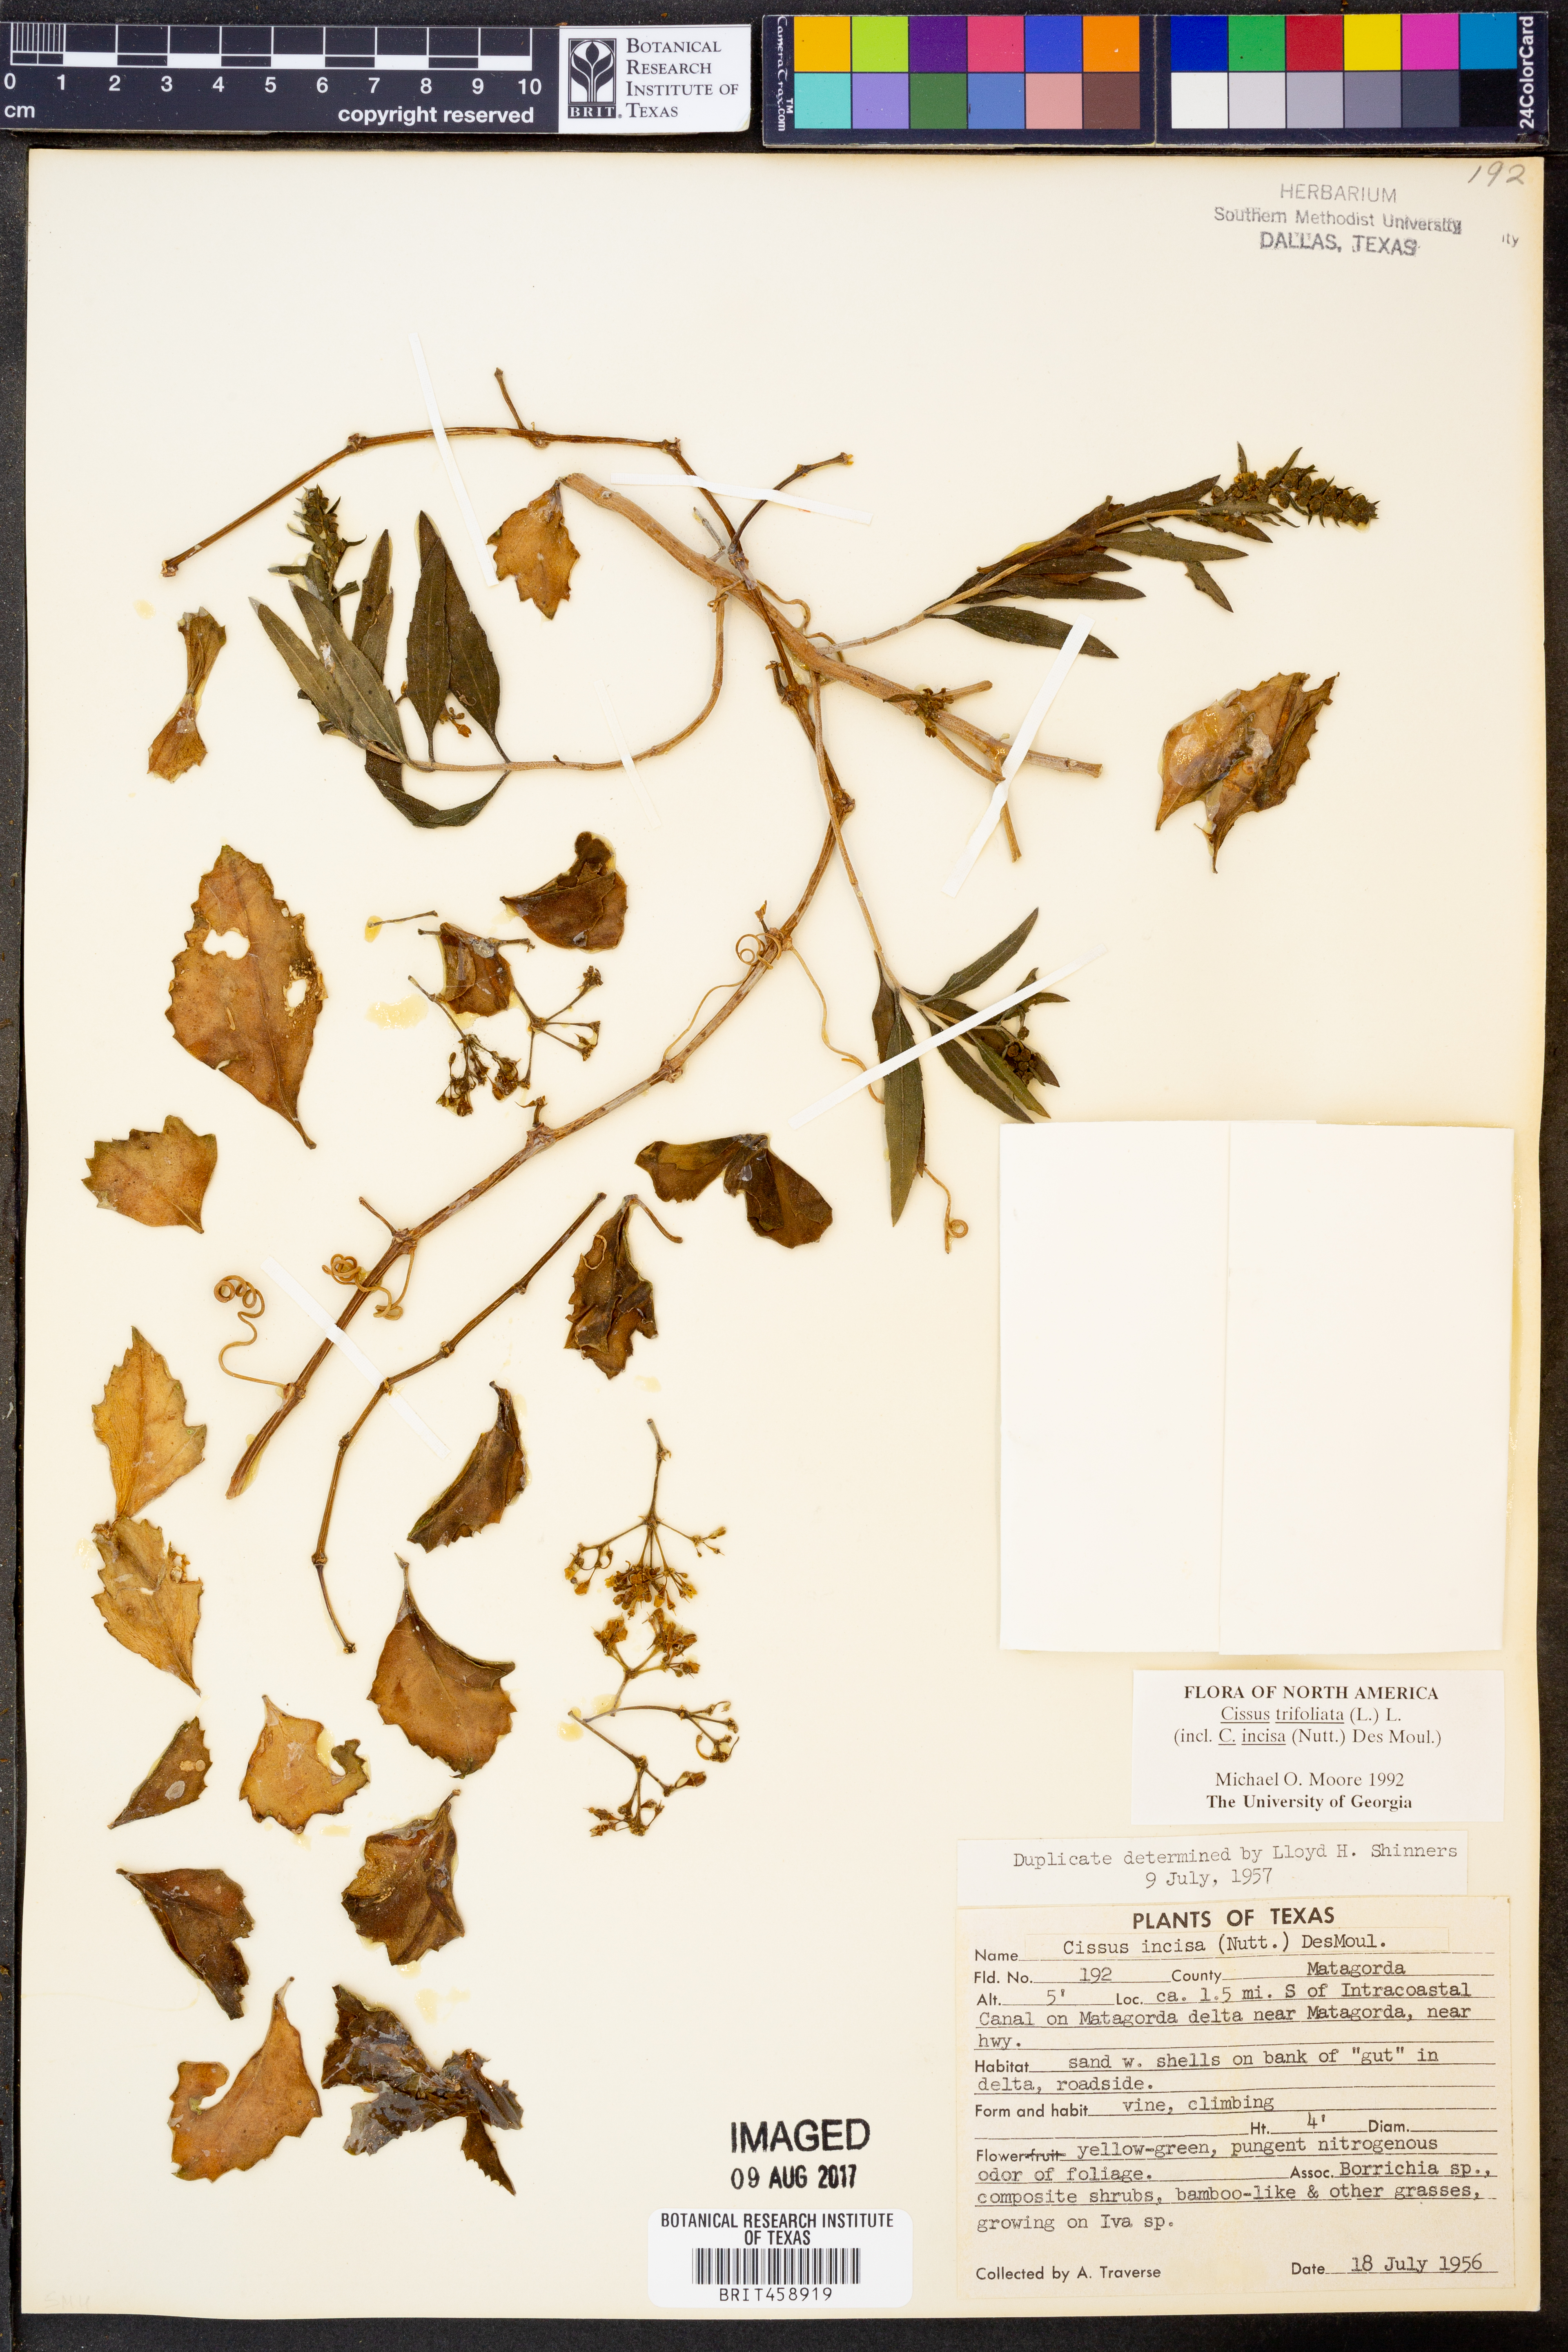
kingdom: Plantae
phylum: Tracheophyta
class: Magnoliopsida
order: Vitales
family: Vitaceae
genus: Cissus
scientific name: Cissus trifoliata
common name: Vine-sorrel
